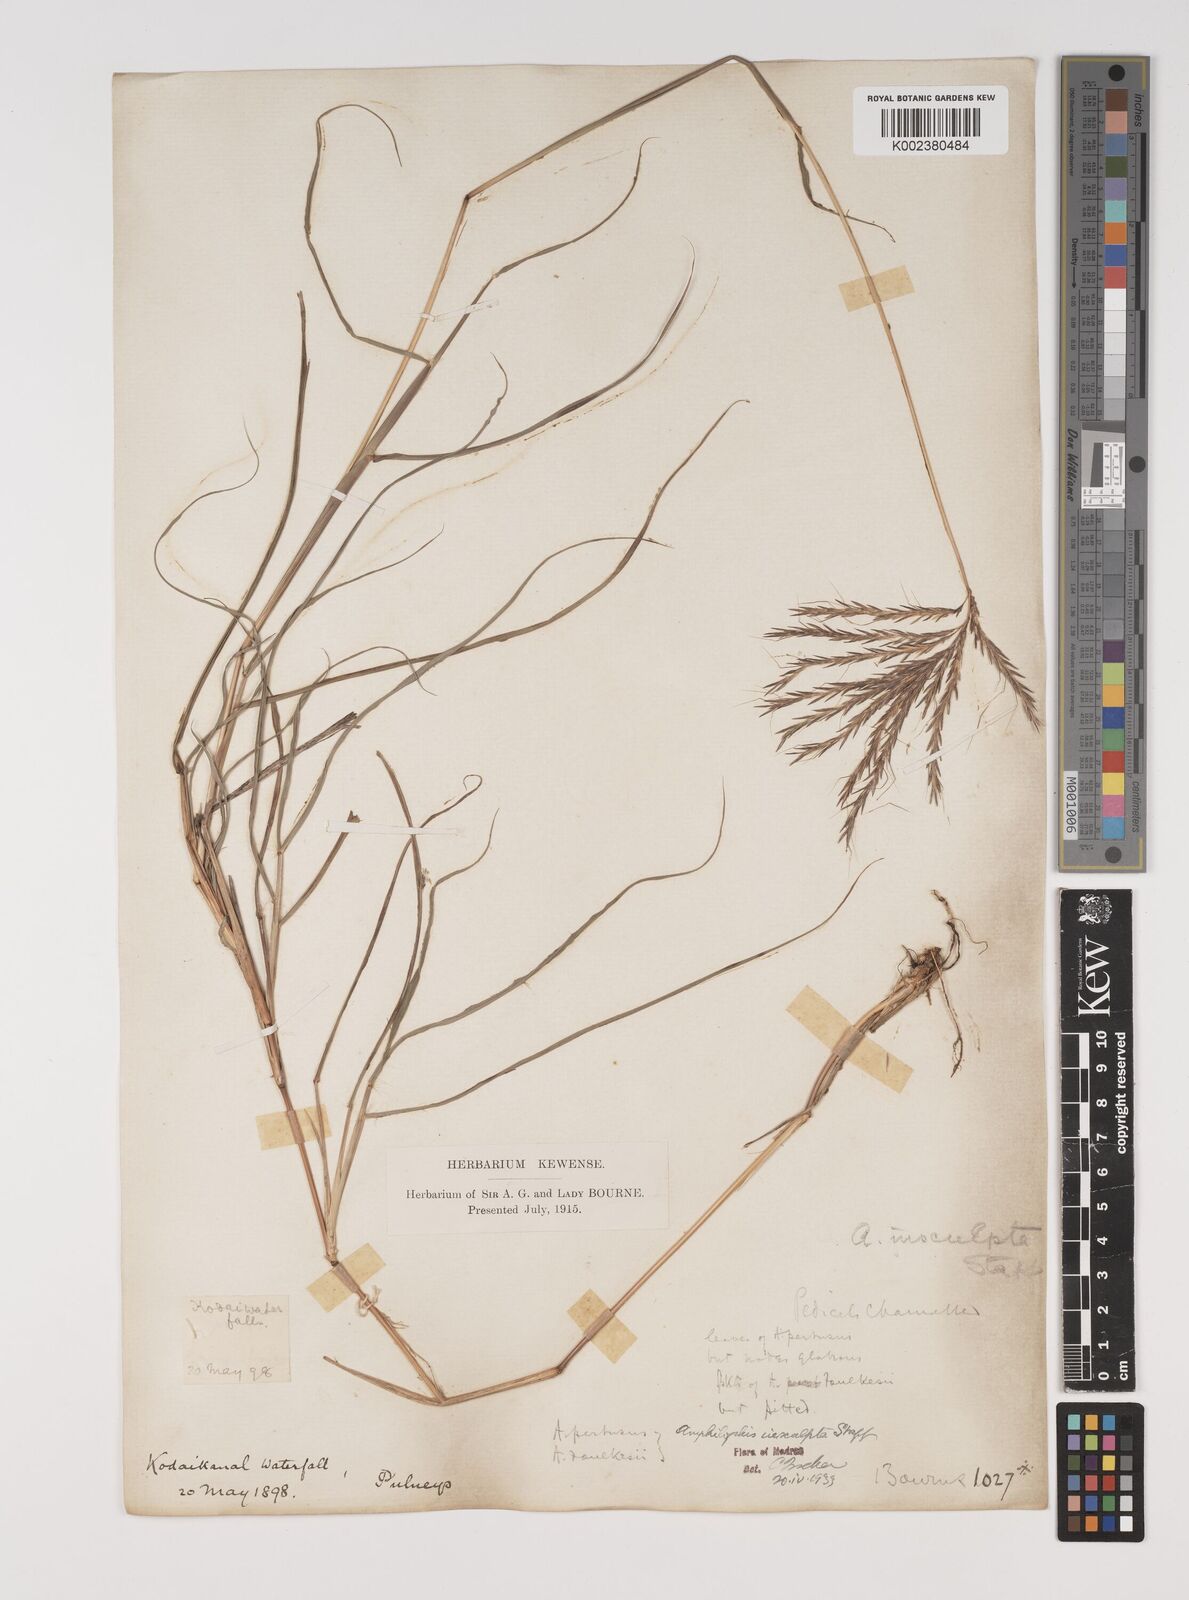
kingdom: Plantae
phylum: Tracheophyta
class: Liliopsida
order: Poales
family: Poaceae
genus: Bothriochloa
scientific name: Bothriochloa insculpta
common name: Creeping-bluegrass
